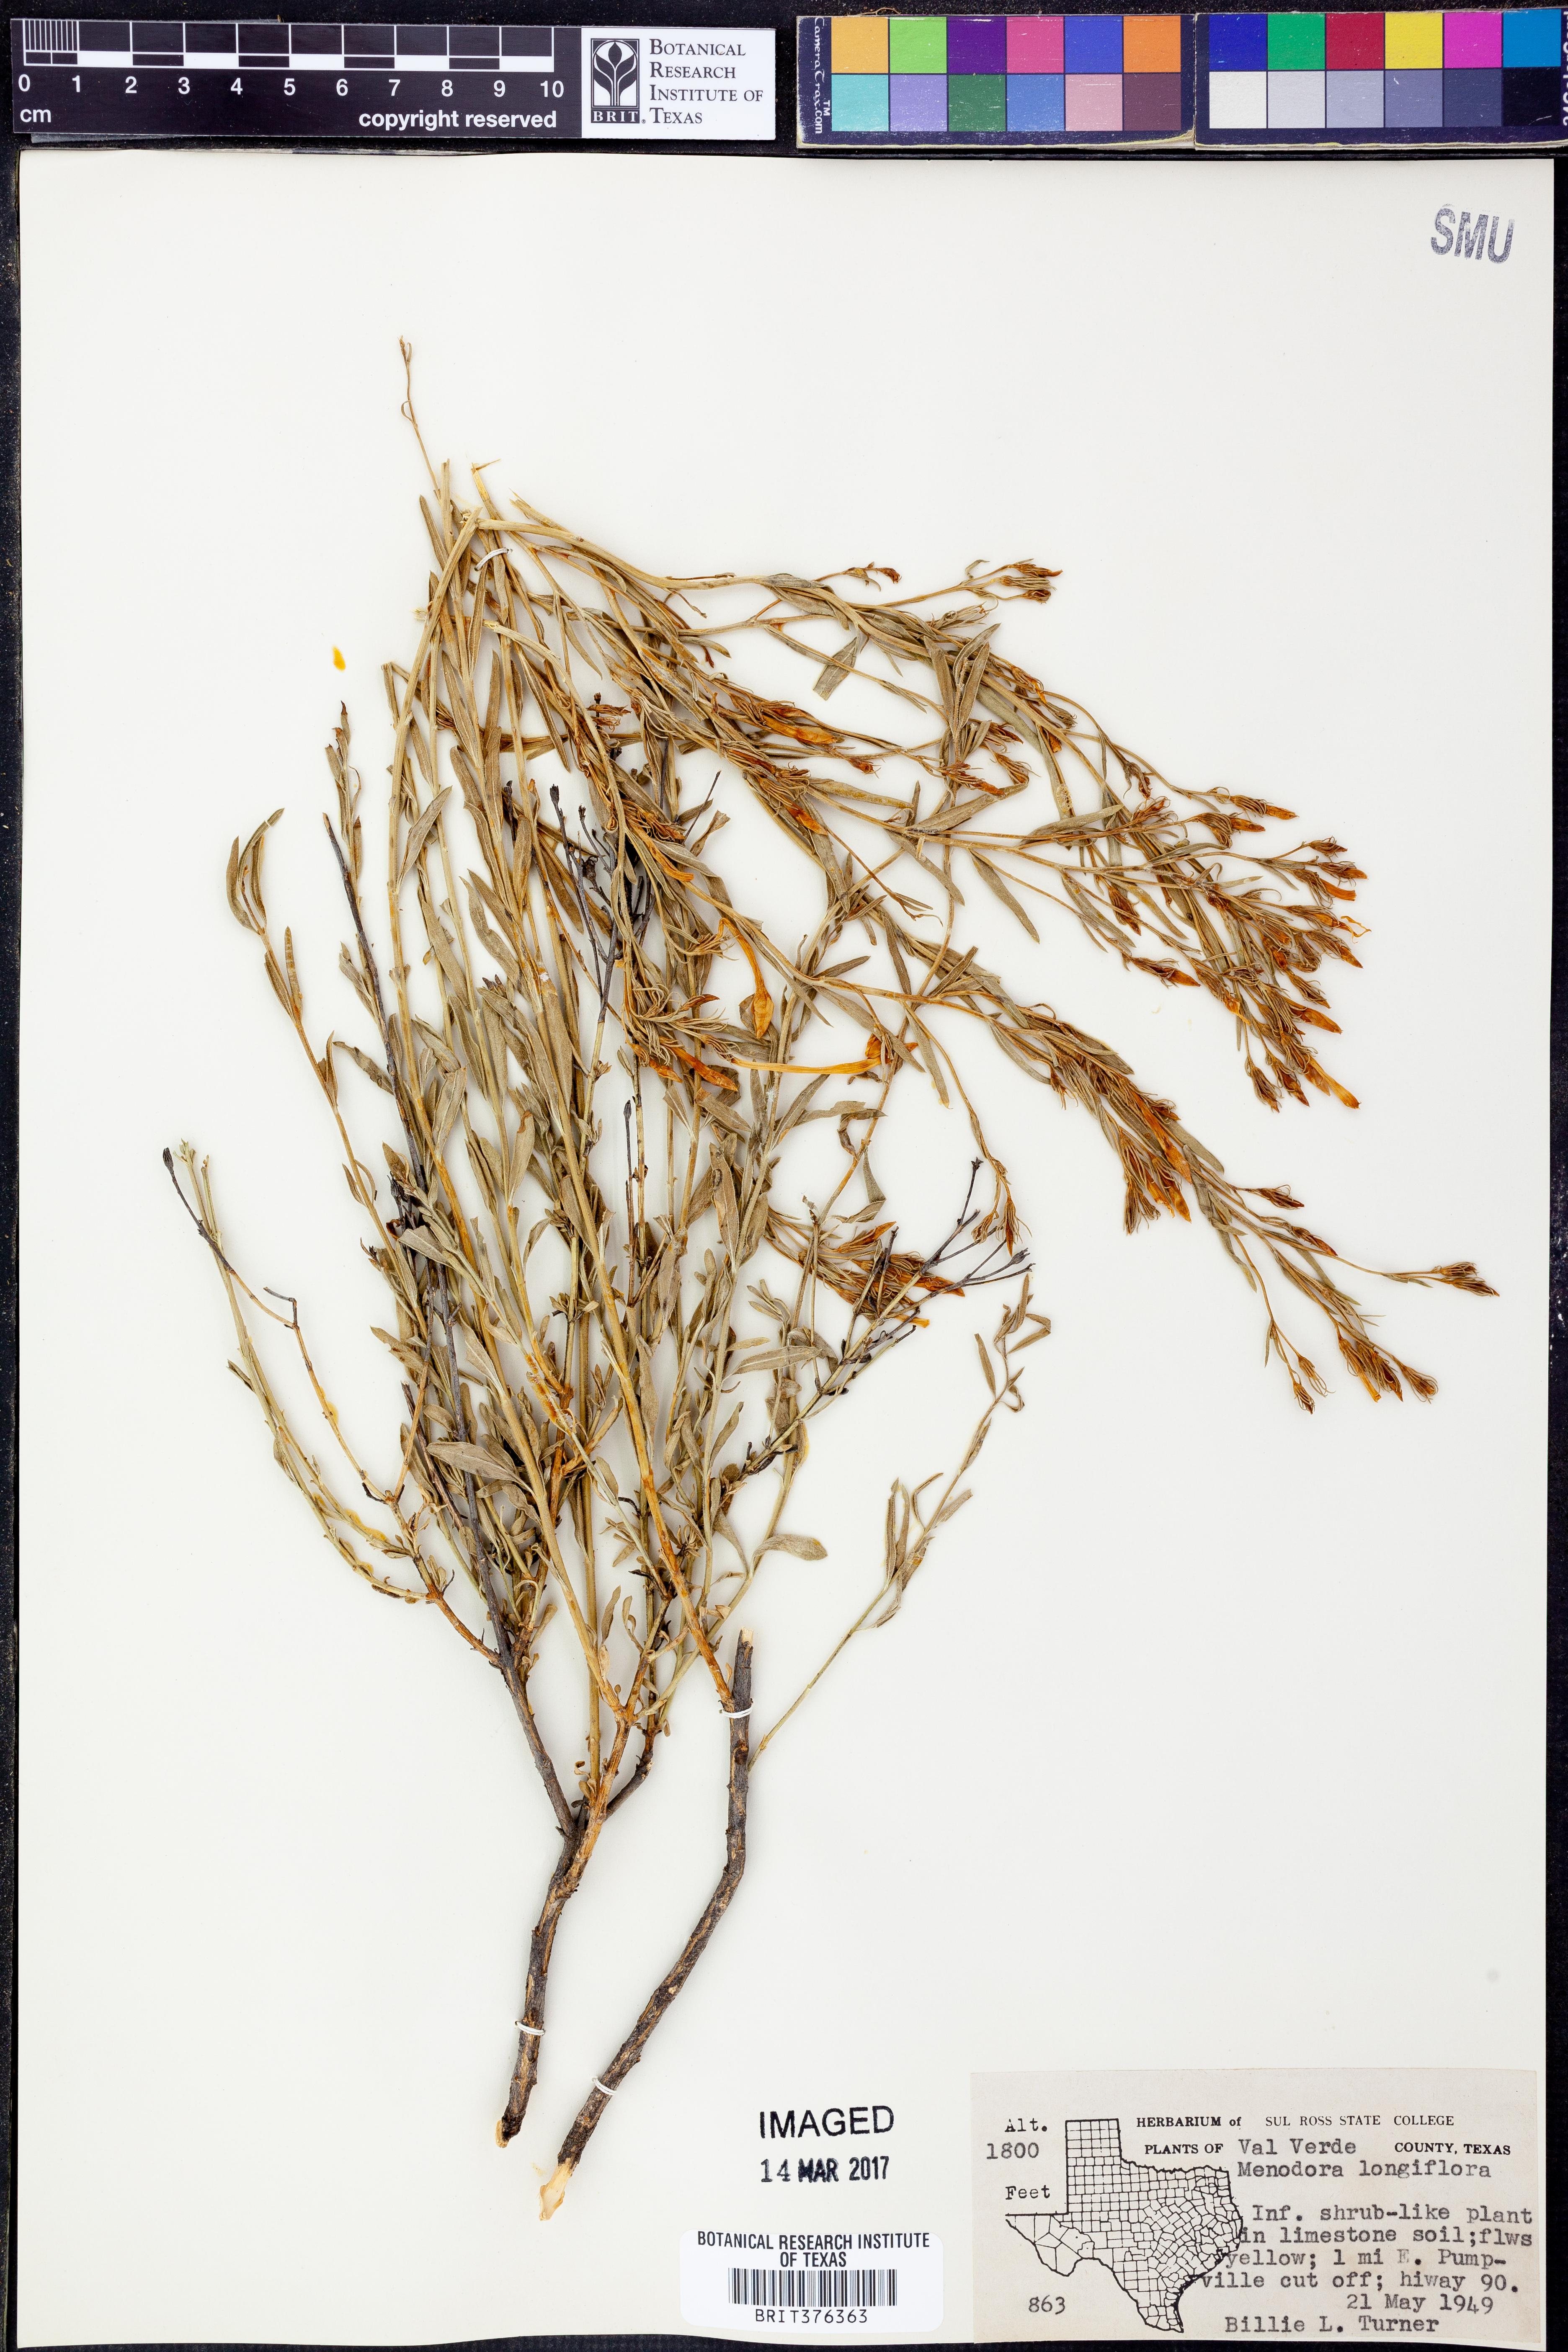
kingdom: Plantae
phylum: Tracheophyta
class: Magnoliopsida
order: Lamiales
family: Oleaceae
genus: Menodora
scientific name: Menodora longiflora
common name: Showy menodora
